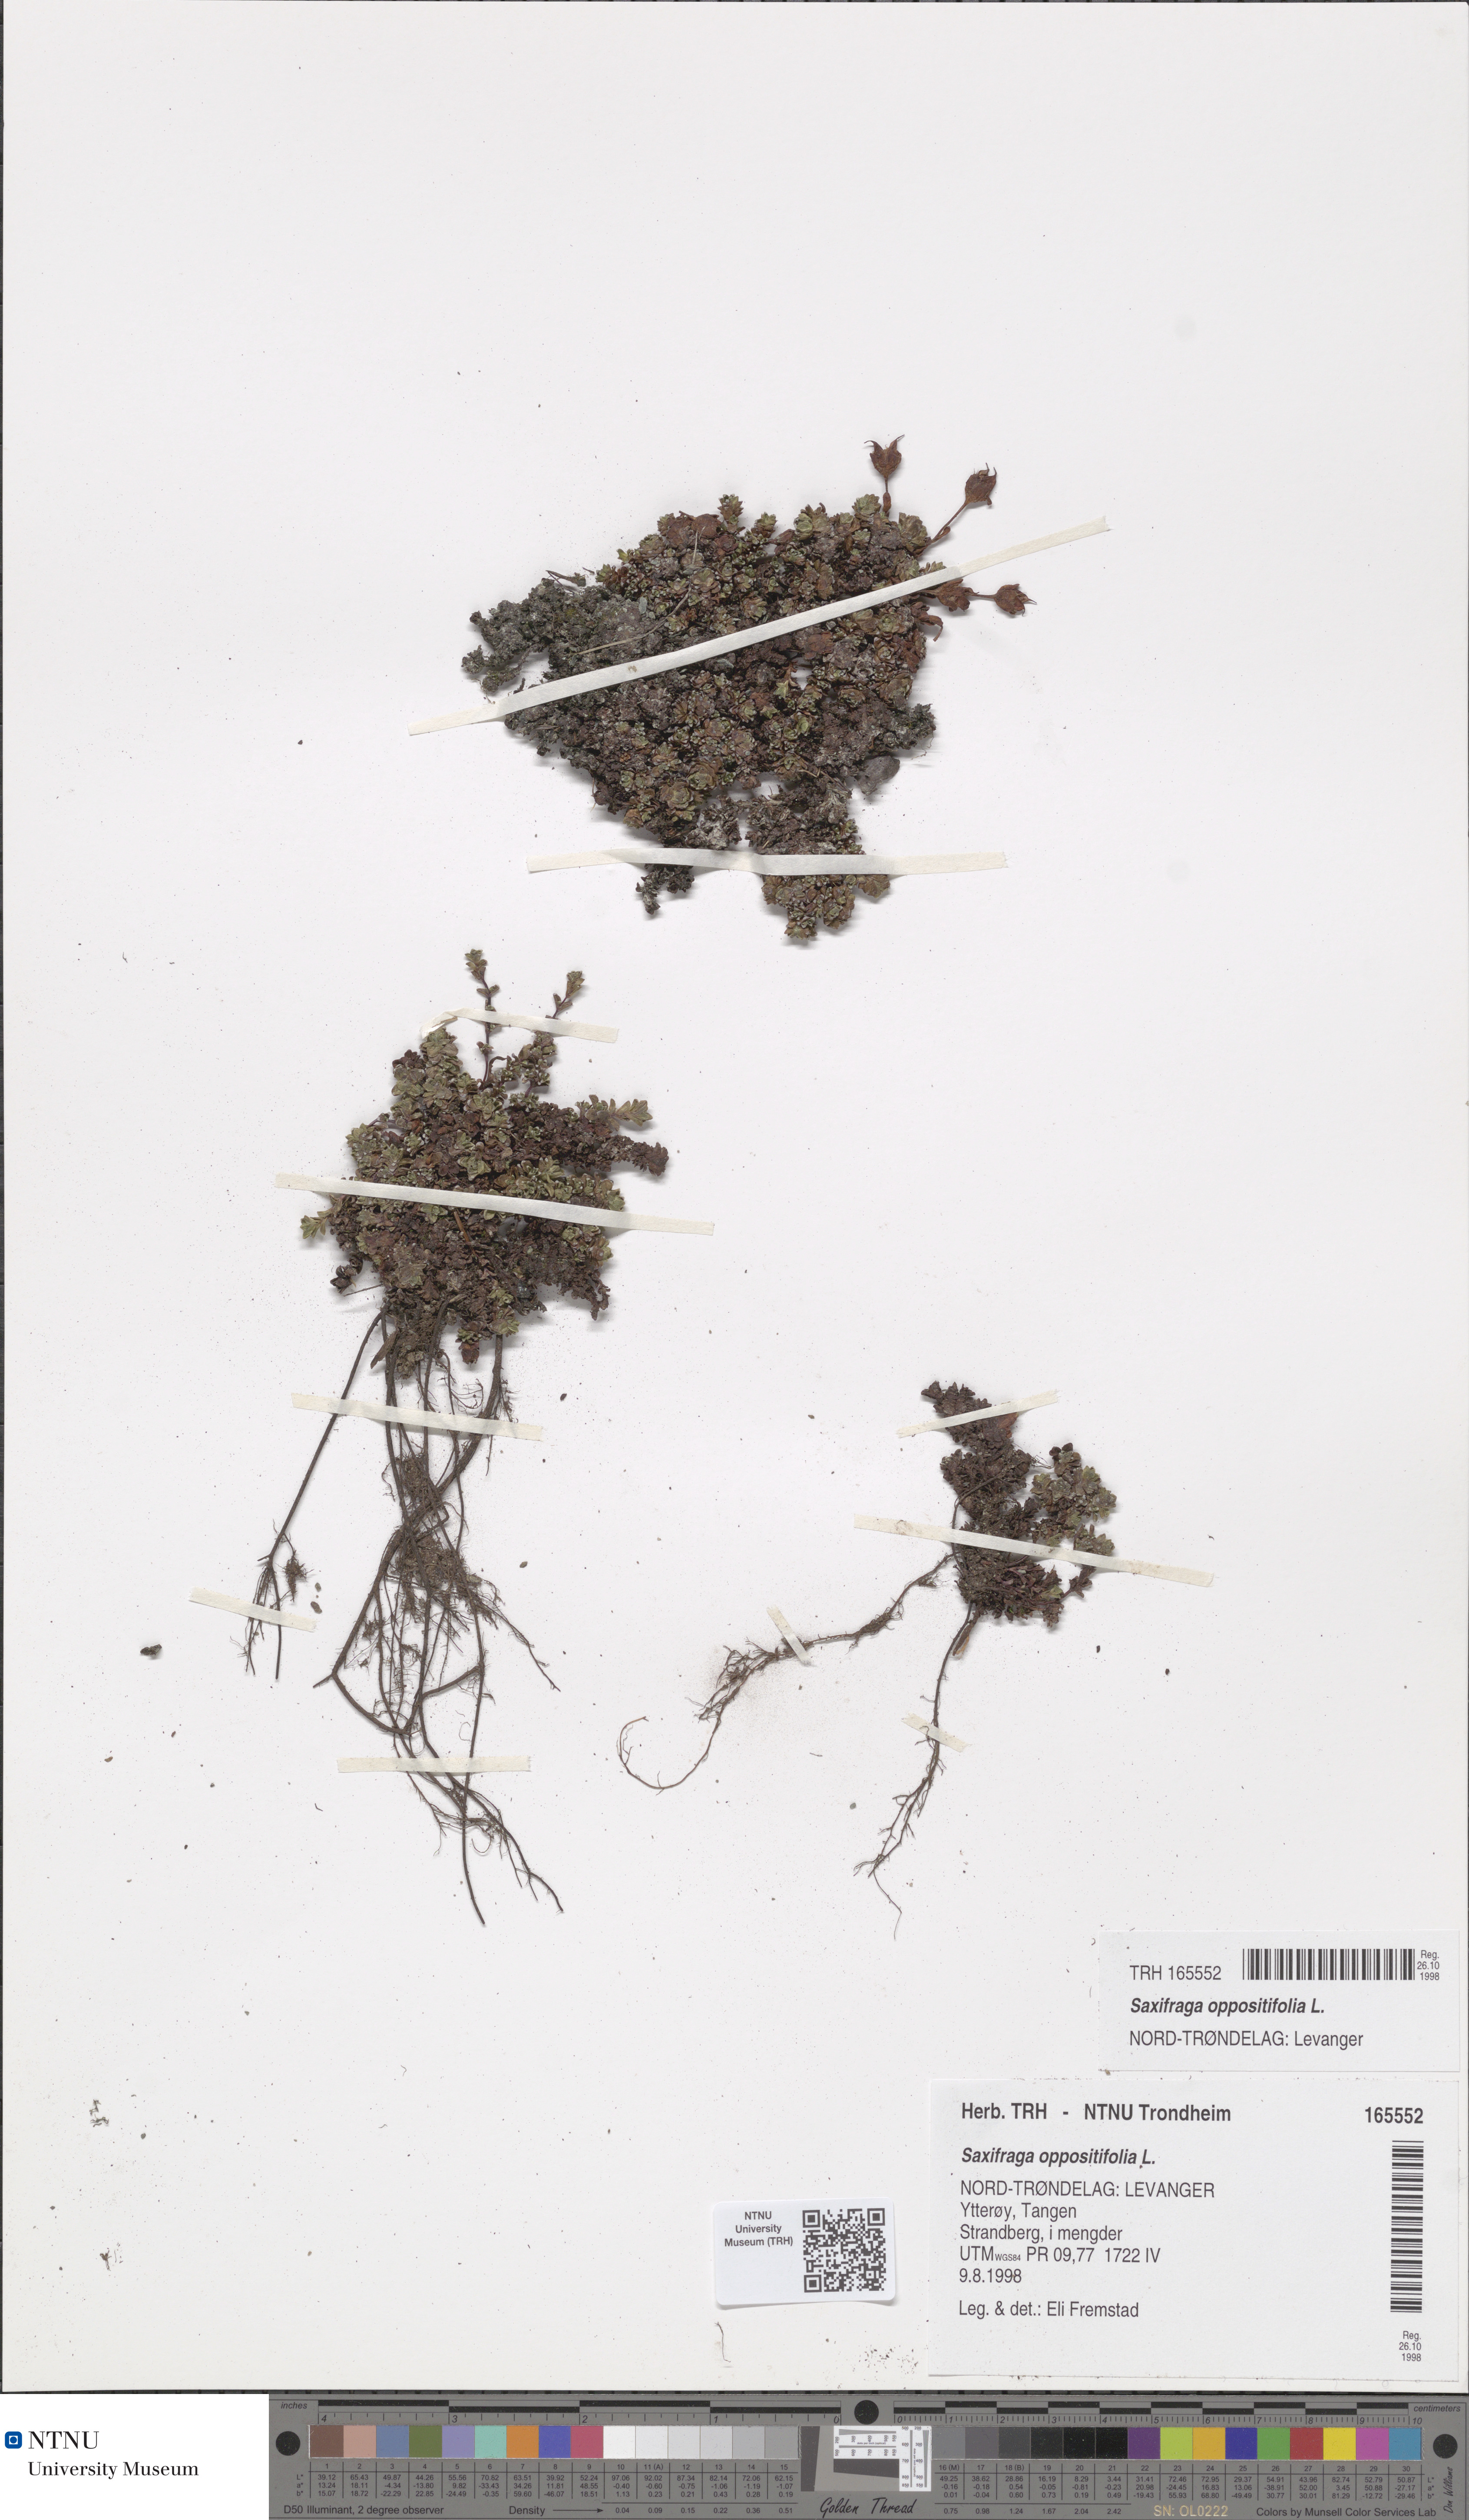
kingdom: Plantae
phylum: Tracheophyta
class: Magnoliopsida
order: Saxifragales
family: Saxifragaceae
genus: Saxifraga
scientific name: Saxifraga oppositifolia
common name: Purple saxifrage
